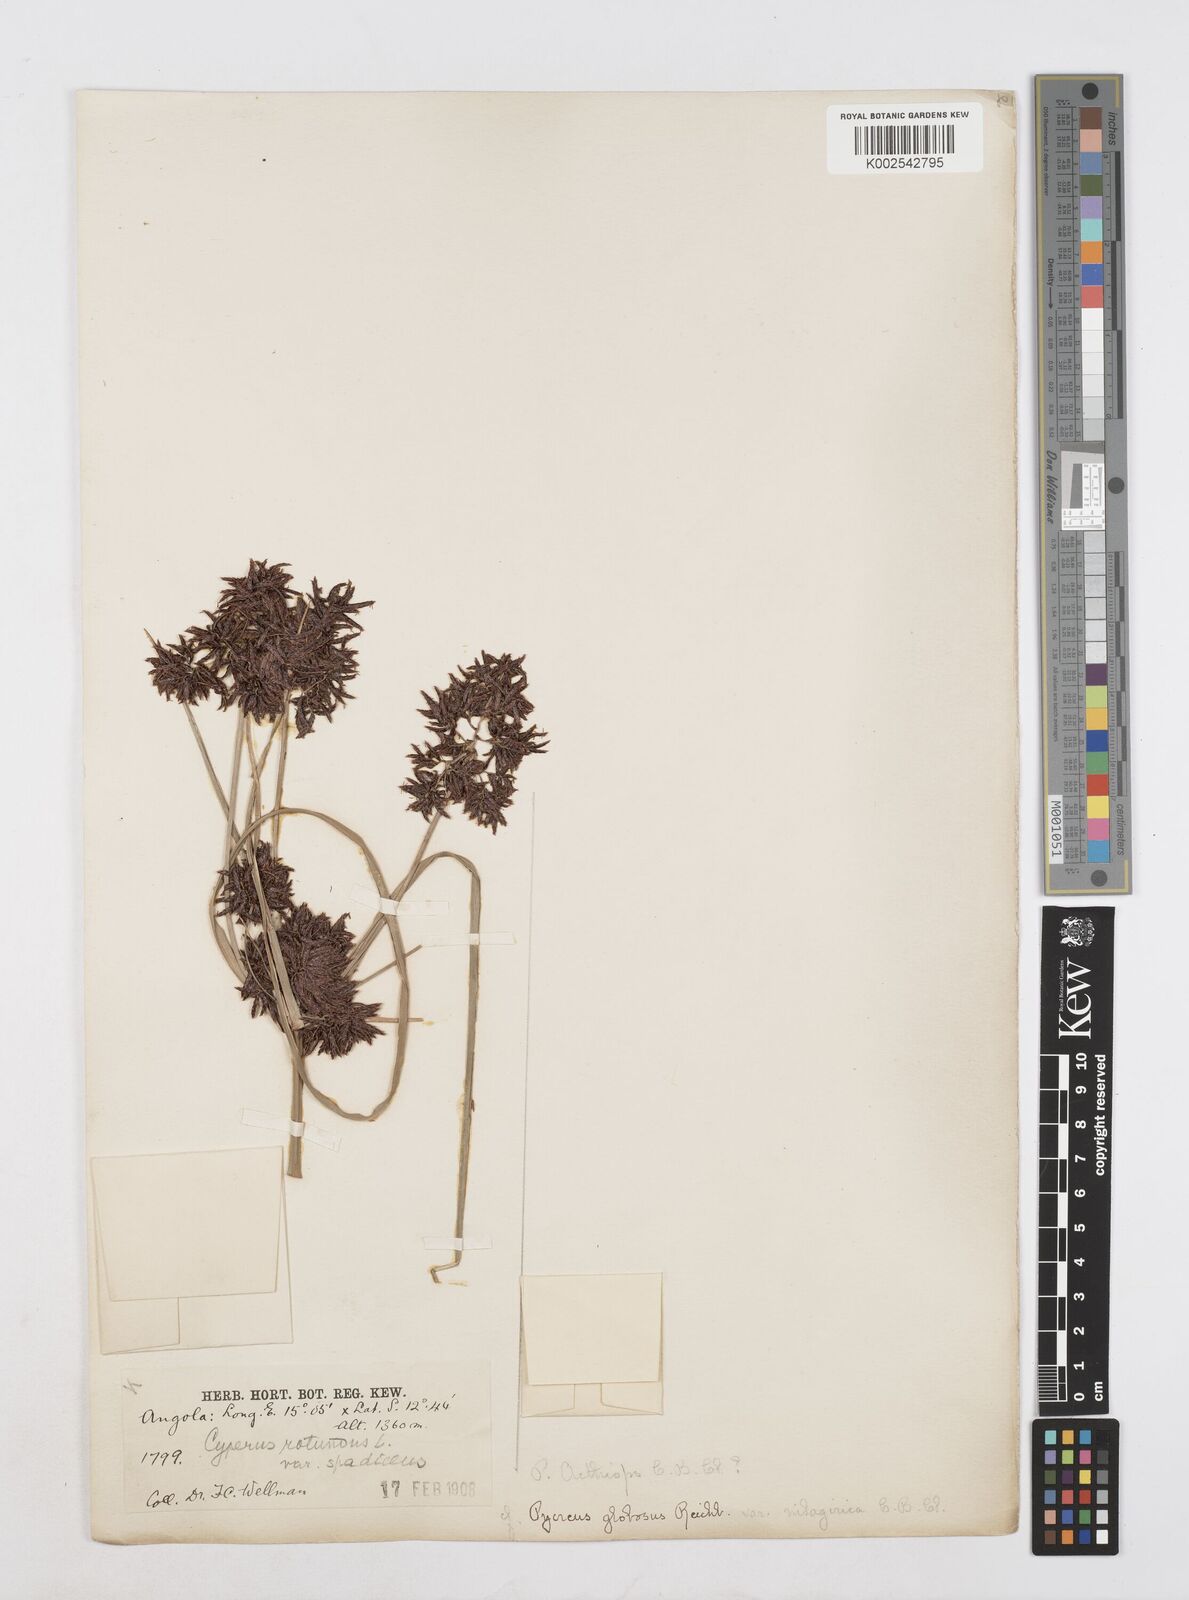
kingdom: Plantae
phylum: Tracheophyta
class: Liliopsida
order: Poales
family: Cyperaceae
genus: Cyperus
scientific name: Cyperus aethiops
